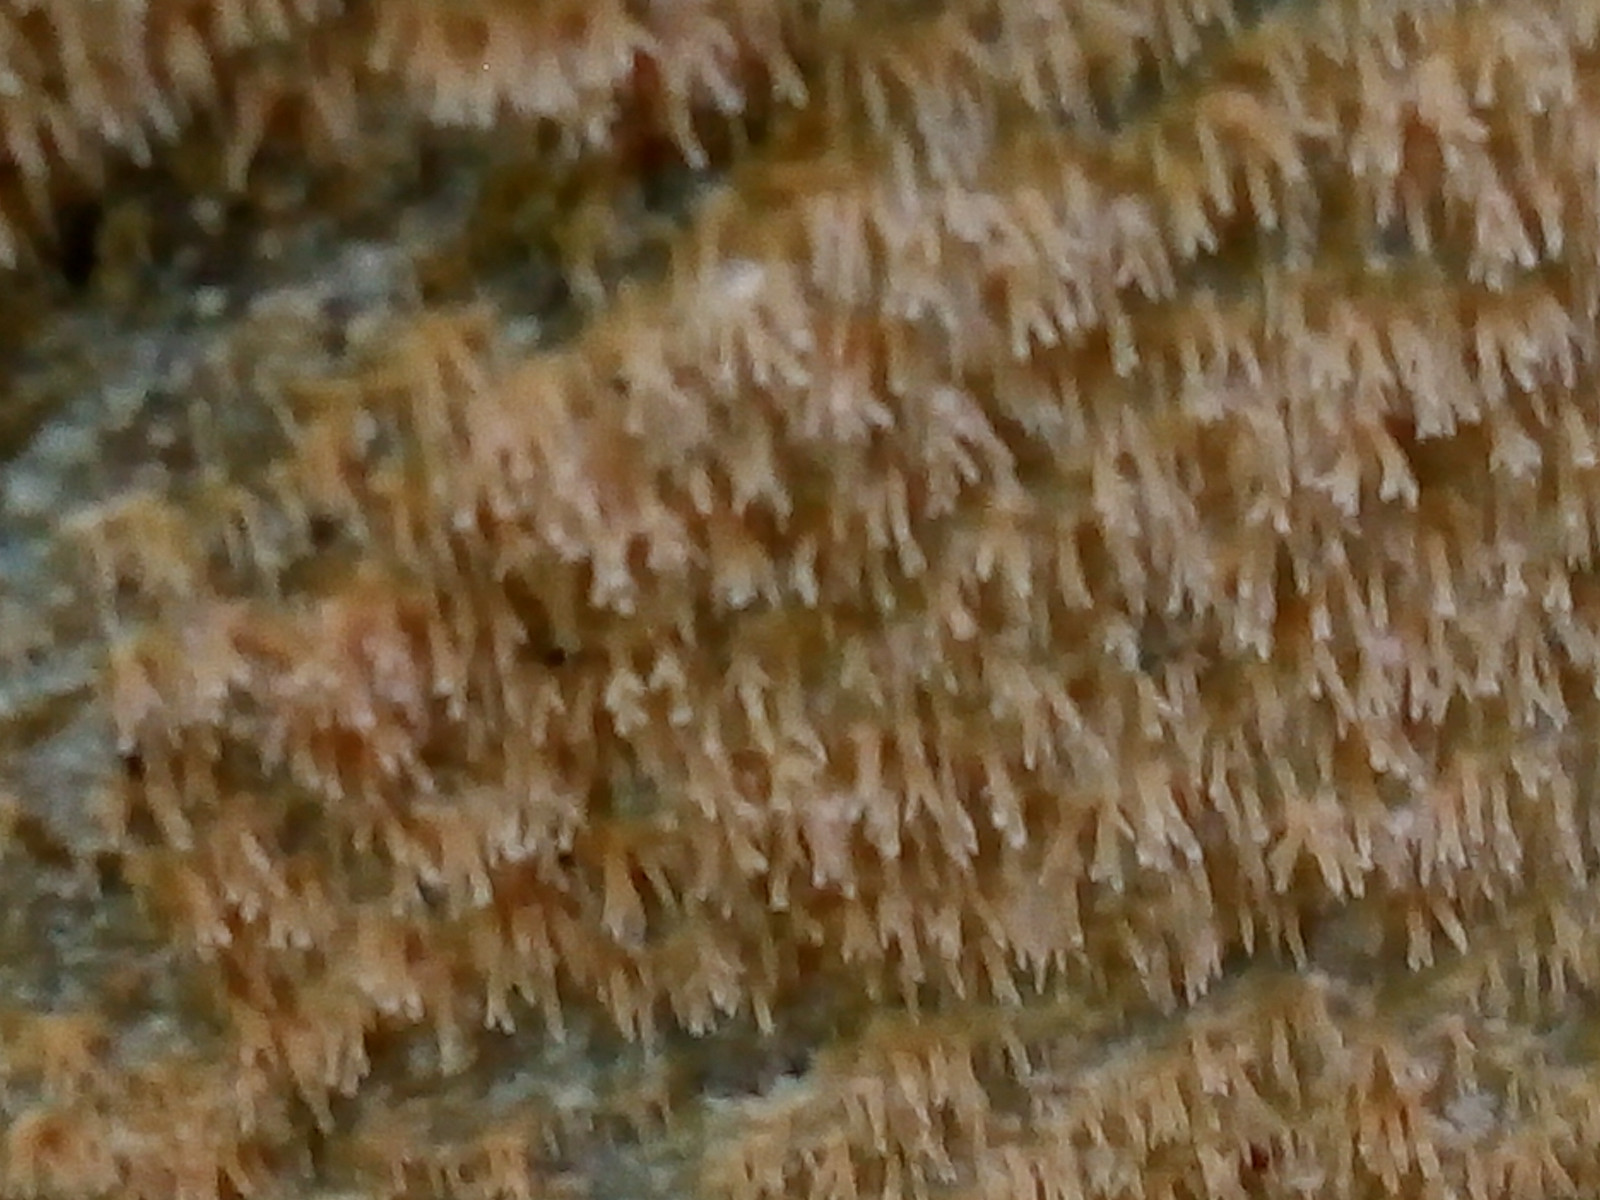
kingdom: Fungi
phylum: Basidiomycota
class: Agaricomycetes
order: Polyporales
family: Meruliaceae
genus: Mycoacia
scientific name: Mycoacia uda
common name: citrongul vokspig
